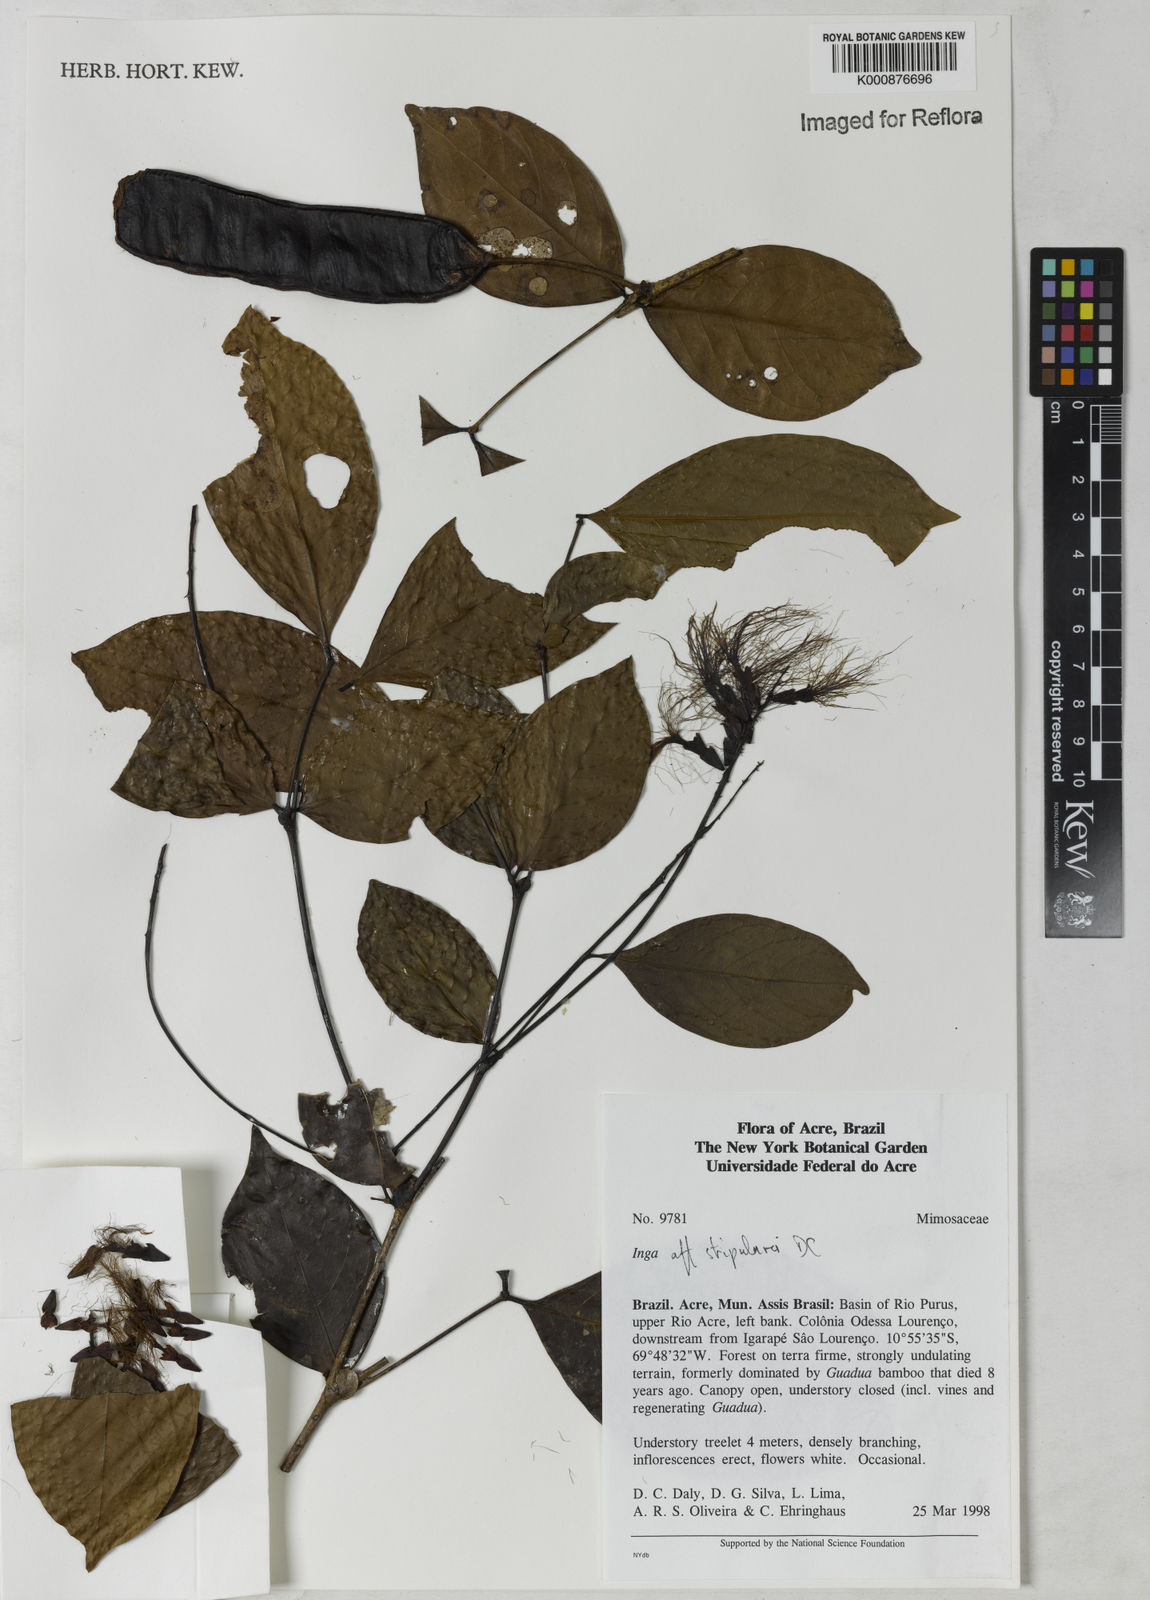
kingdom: Plantae
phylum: Tracheophyta
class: Magnoliopsida
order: Fabales
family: Fabaceae
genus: Inga
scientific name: Inga stipularis
